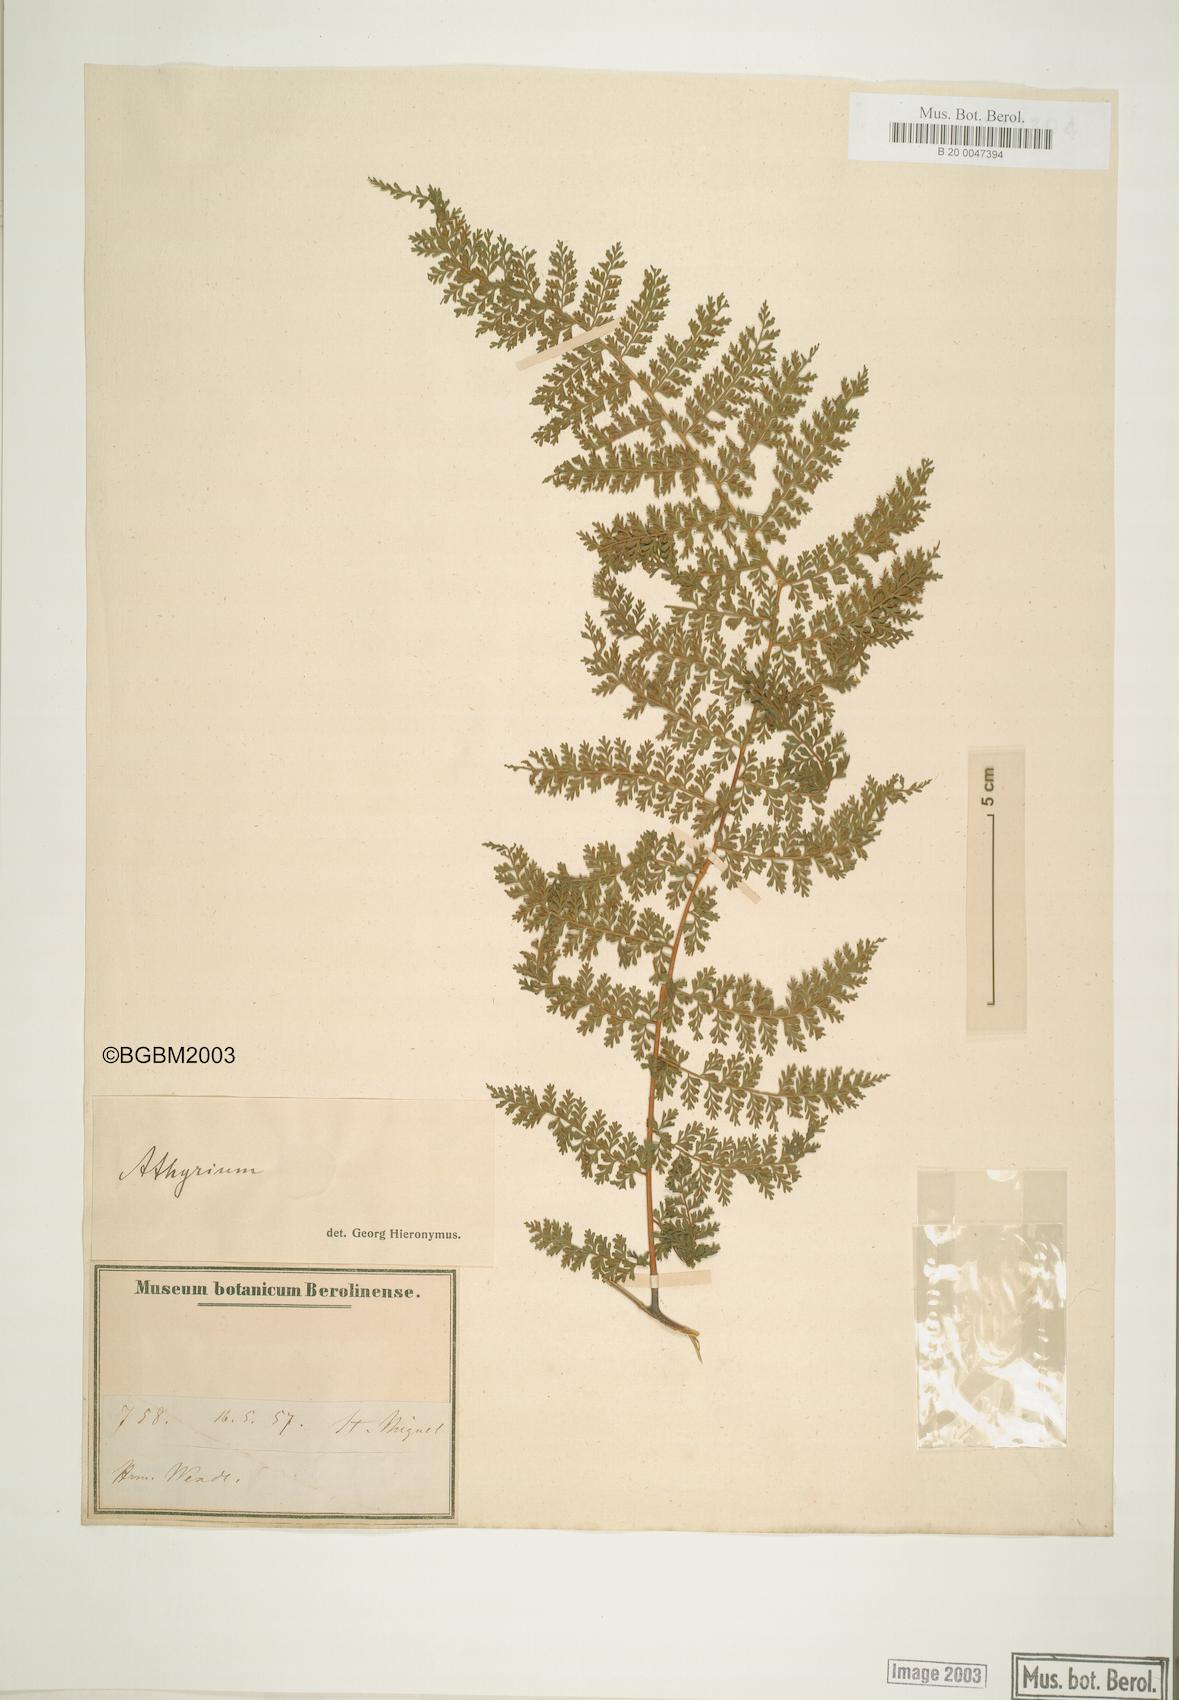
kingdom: Plantae
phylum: Tracheophyta
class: Polypodiopsida
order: Polypodiales
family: Athyriaceae
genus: Diplazium
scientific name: Diplazium divisissimum
